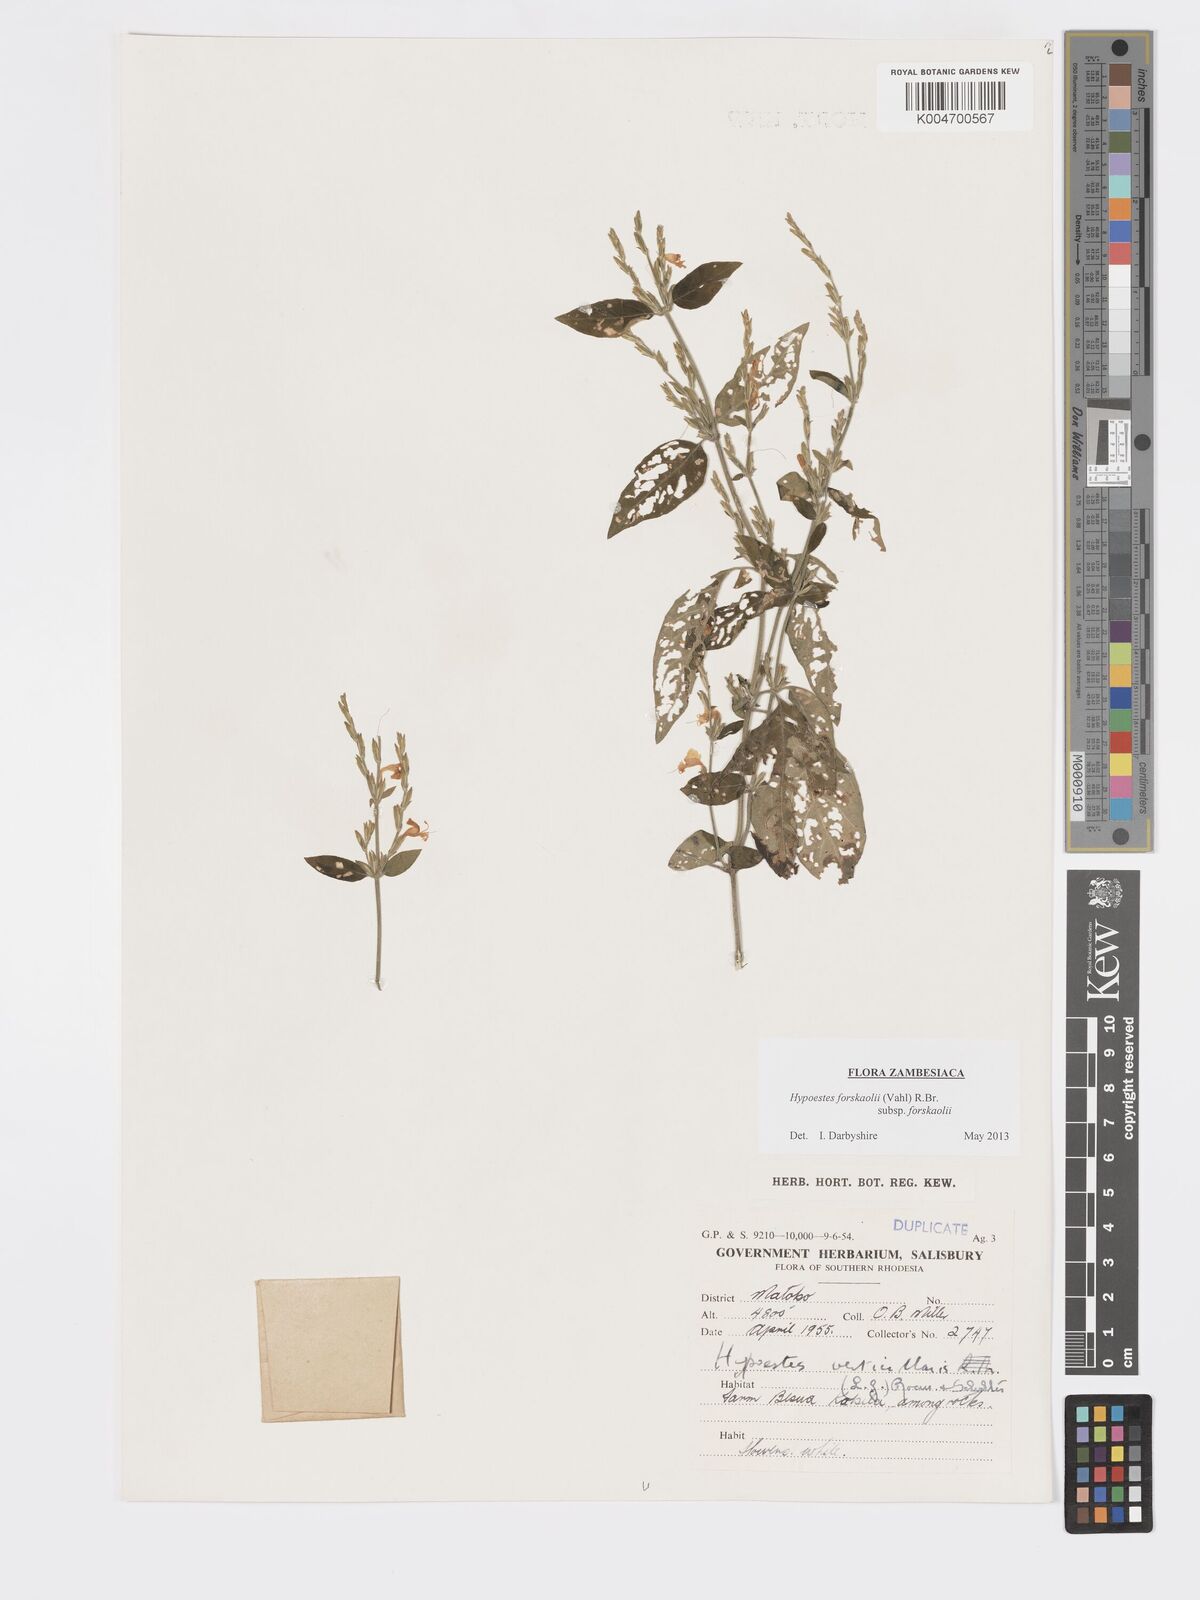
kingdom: Plantae
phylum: Tracheophyta
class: Magnoliopsida
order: Lamiales
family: Acanthaceae
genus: Hypoestes
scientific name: Hypoestes forskaolii
